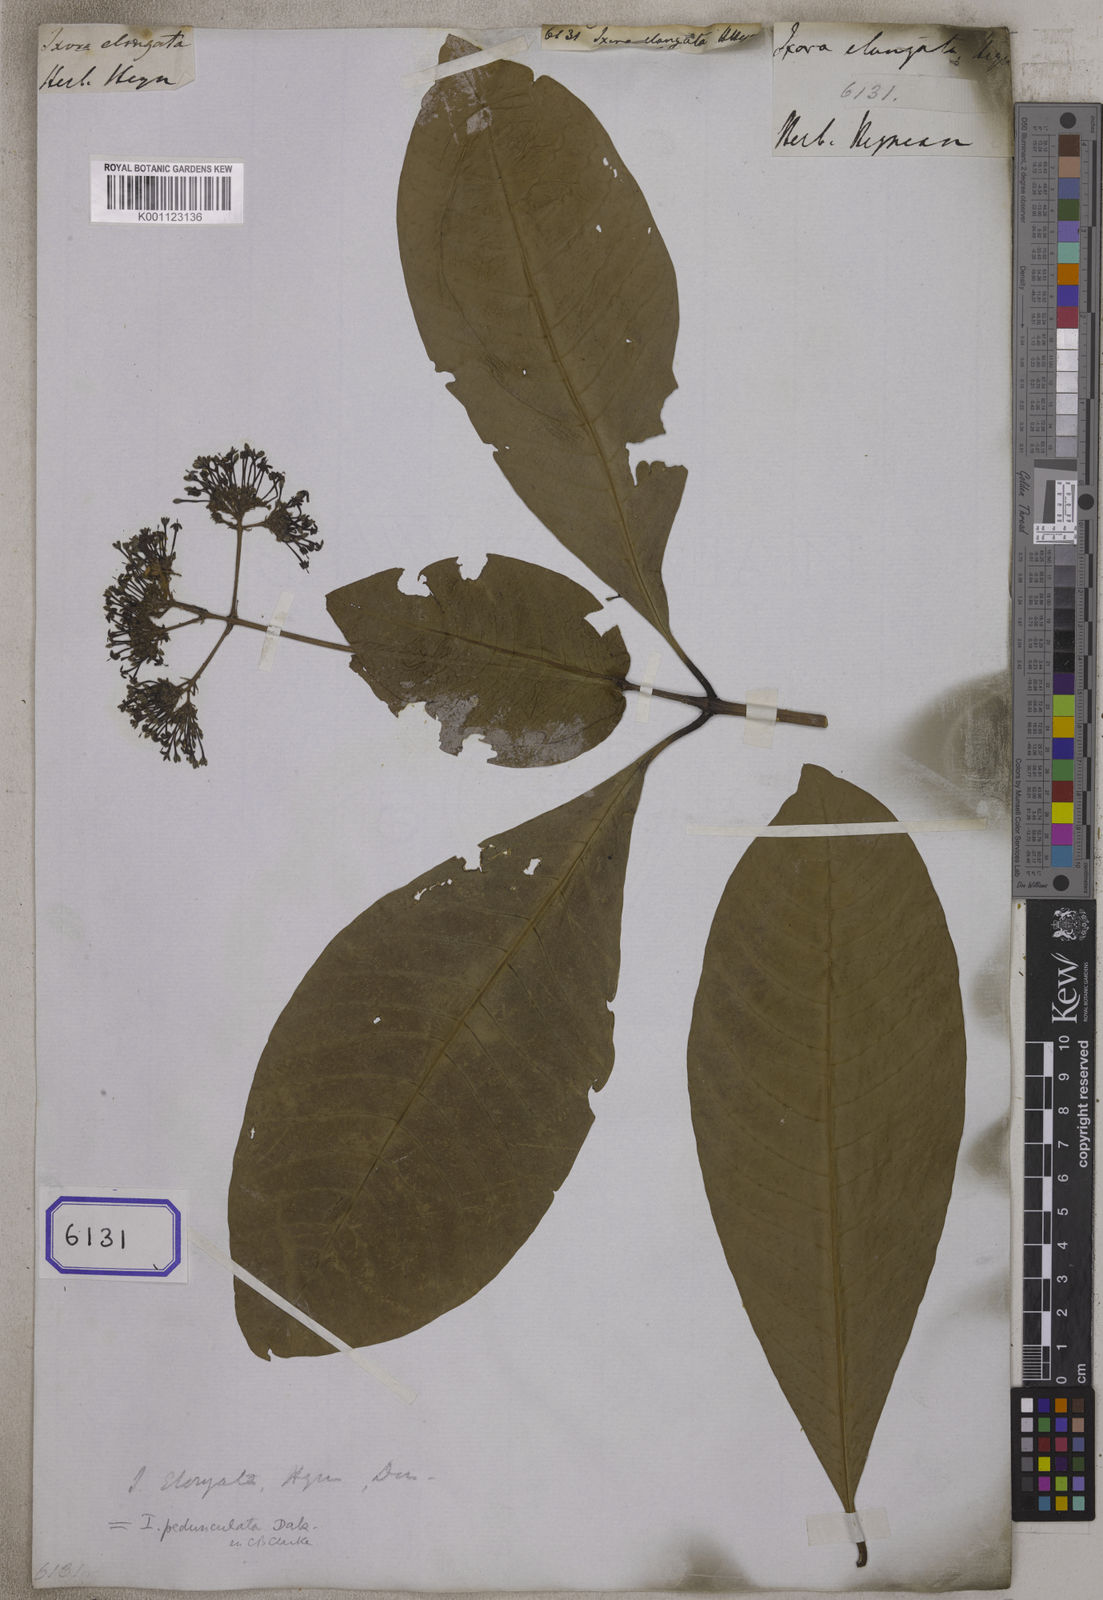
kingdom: Plantae
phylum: Tracheophyta
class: Magnoliopsida
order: Gentianales
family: Rubiaceae
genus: Ixora
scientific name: Ixora
